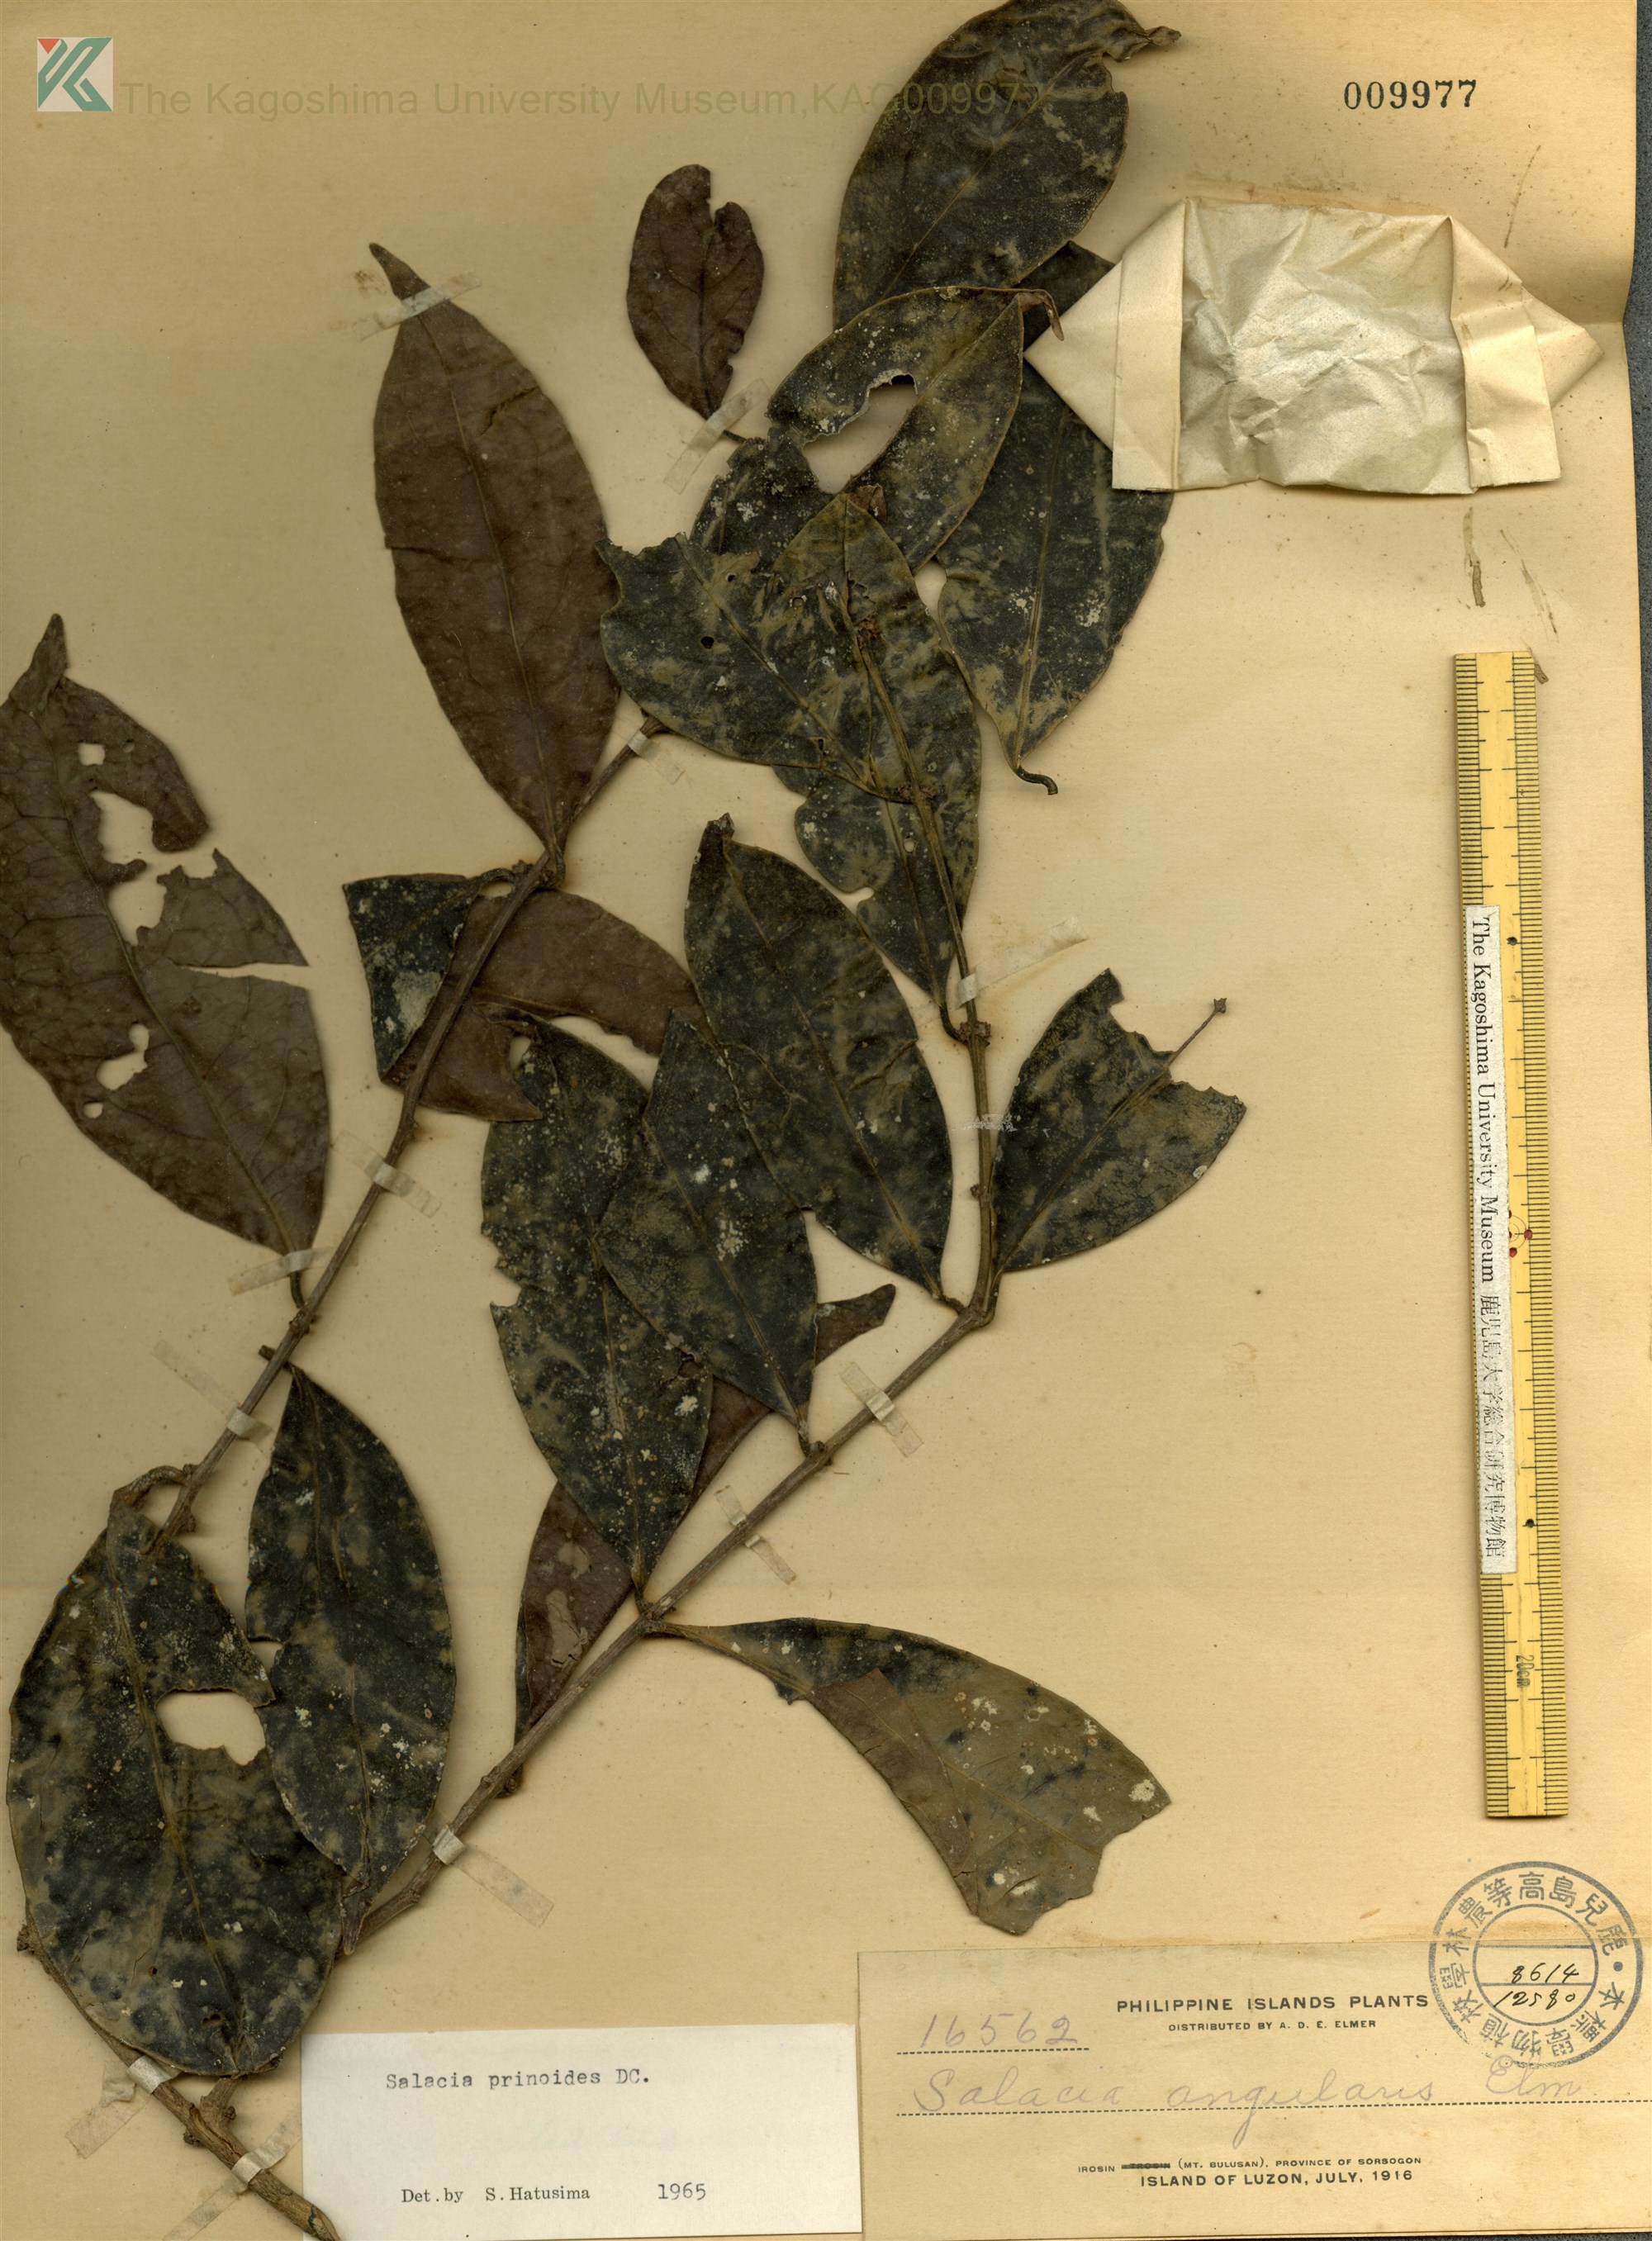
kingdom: Plantae
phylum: Tracheophyta
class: Magnoliopsida
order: Celastrales
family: Celastraceae
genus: Salacia
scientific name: Salacia chinensis
